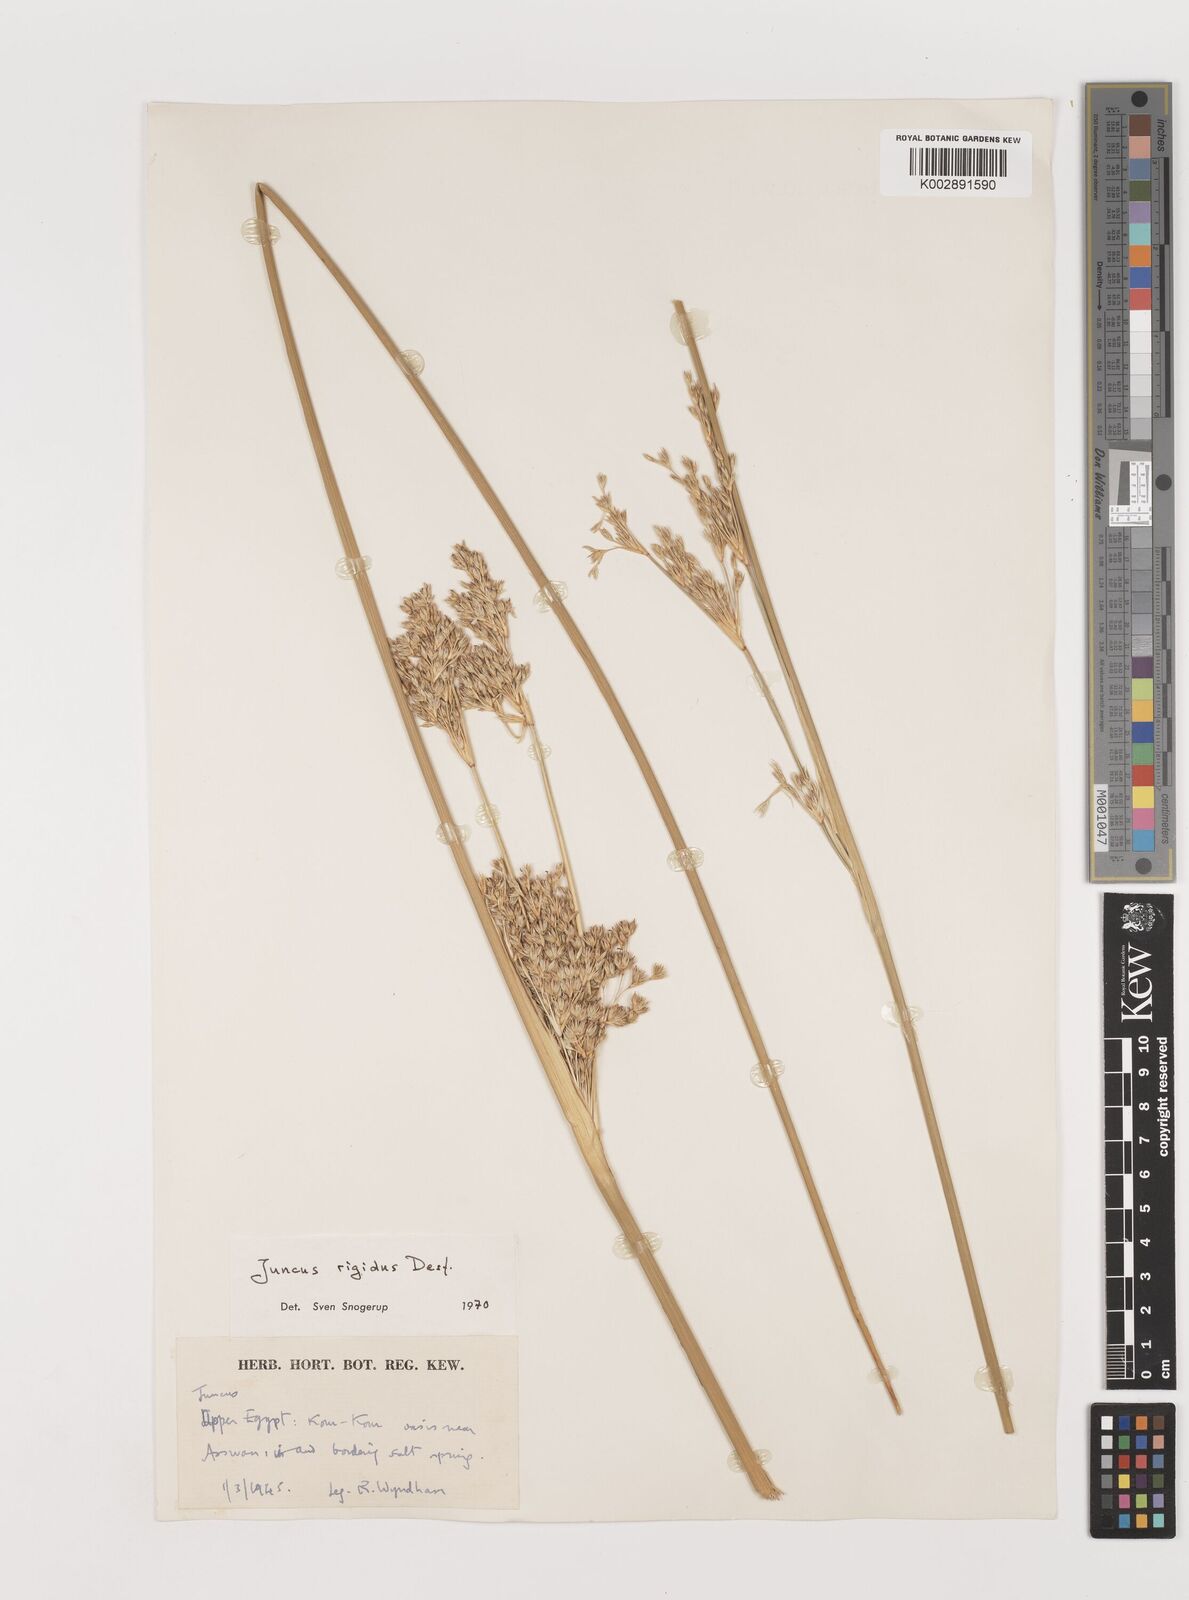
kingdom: Plantae
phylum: Tracheophyta
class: Liliopsida
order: Poales
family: Juncaceae
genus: Juncus
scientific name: Juncus rigidus
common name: Hard sea rush
